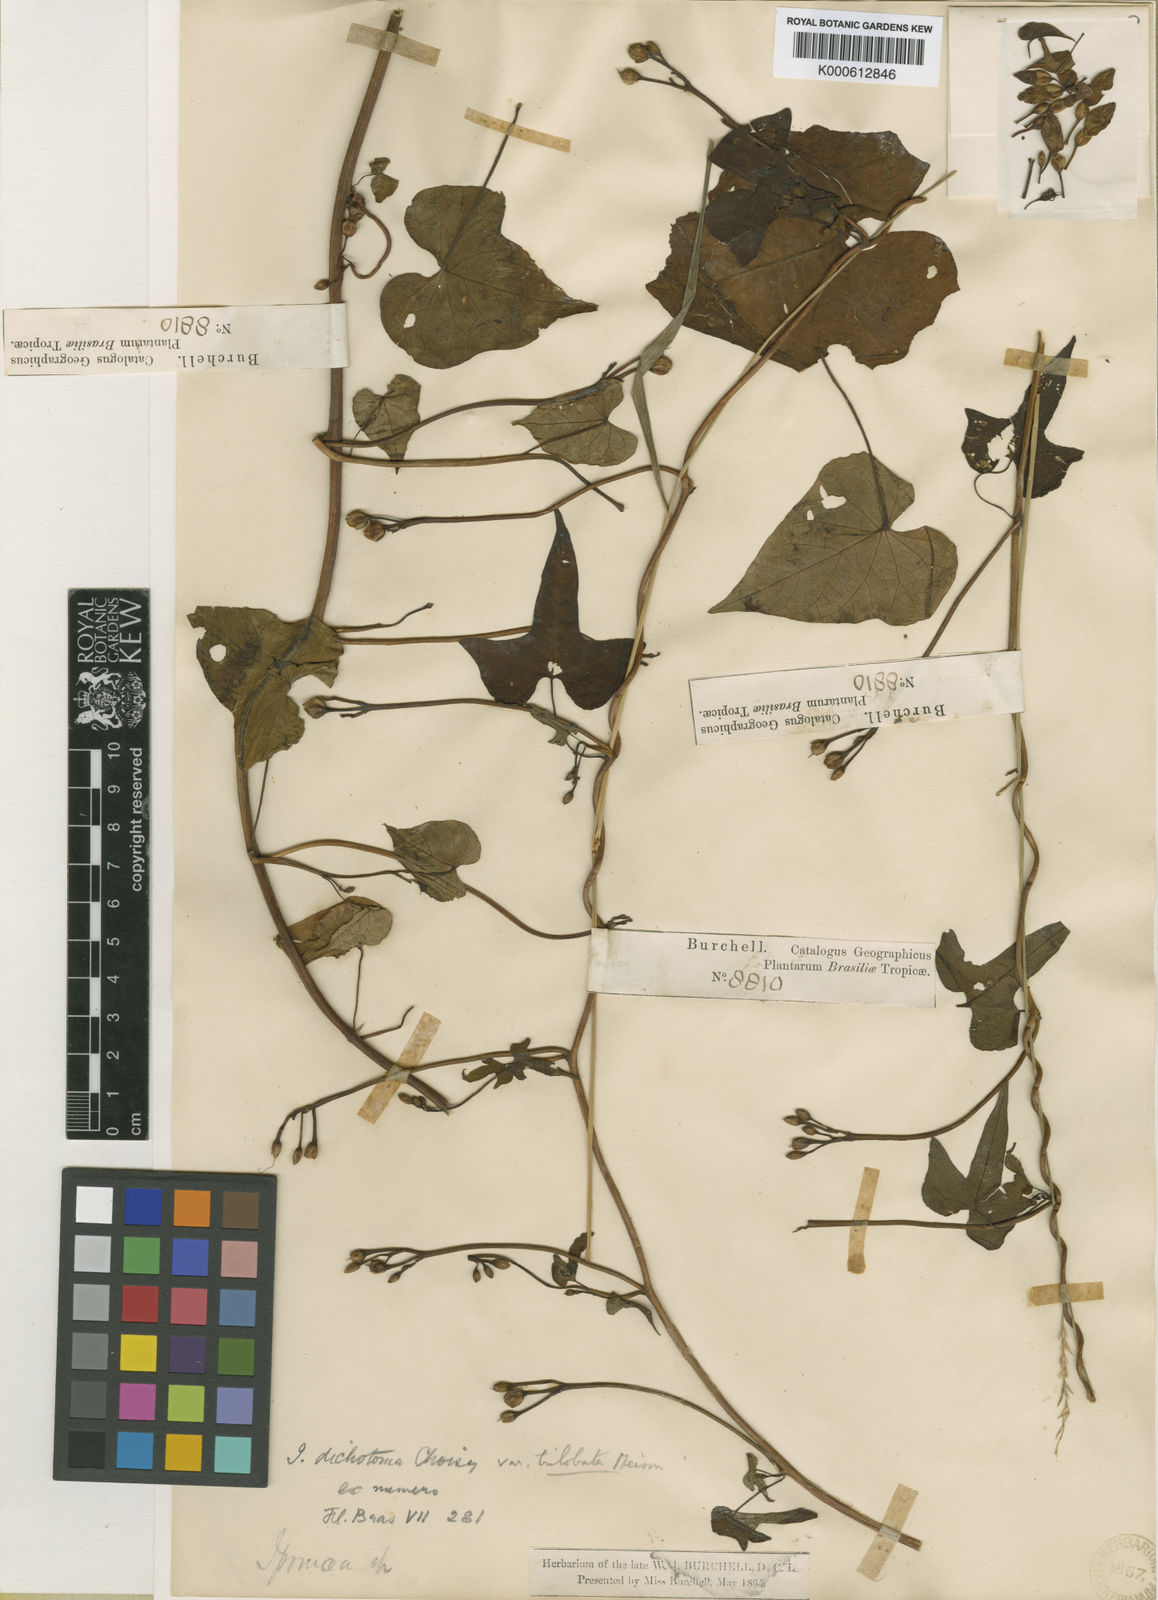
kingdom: Plantae
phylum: Tracheophyta
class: Magnoliopsida
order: Solanales
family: Convolvulaceae
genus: Ipomoea
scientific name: Ipomoea ramosissima
